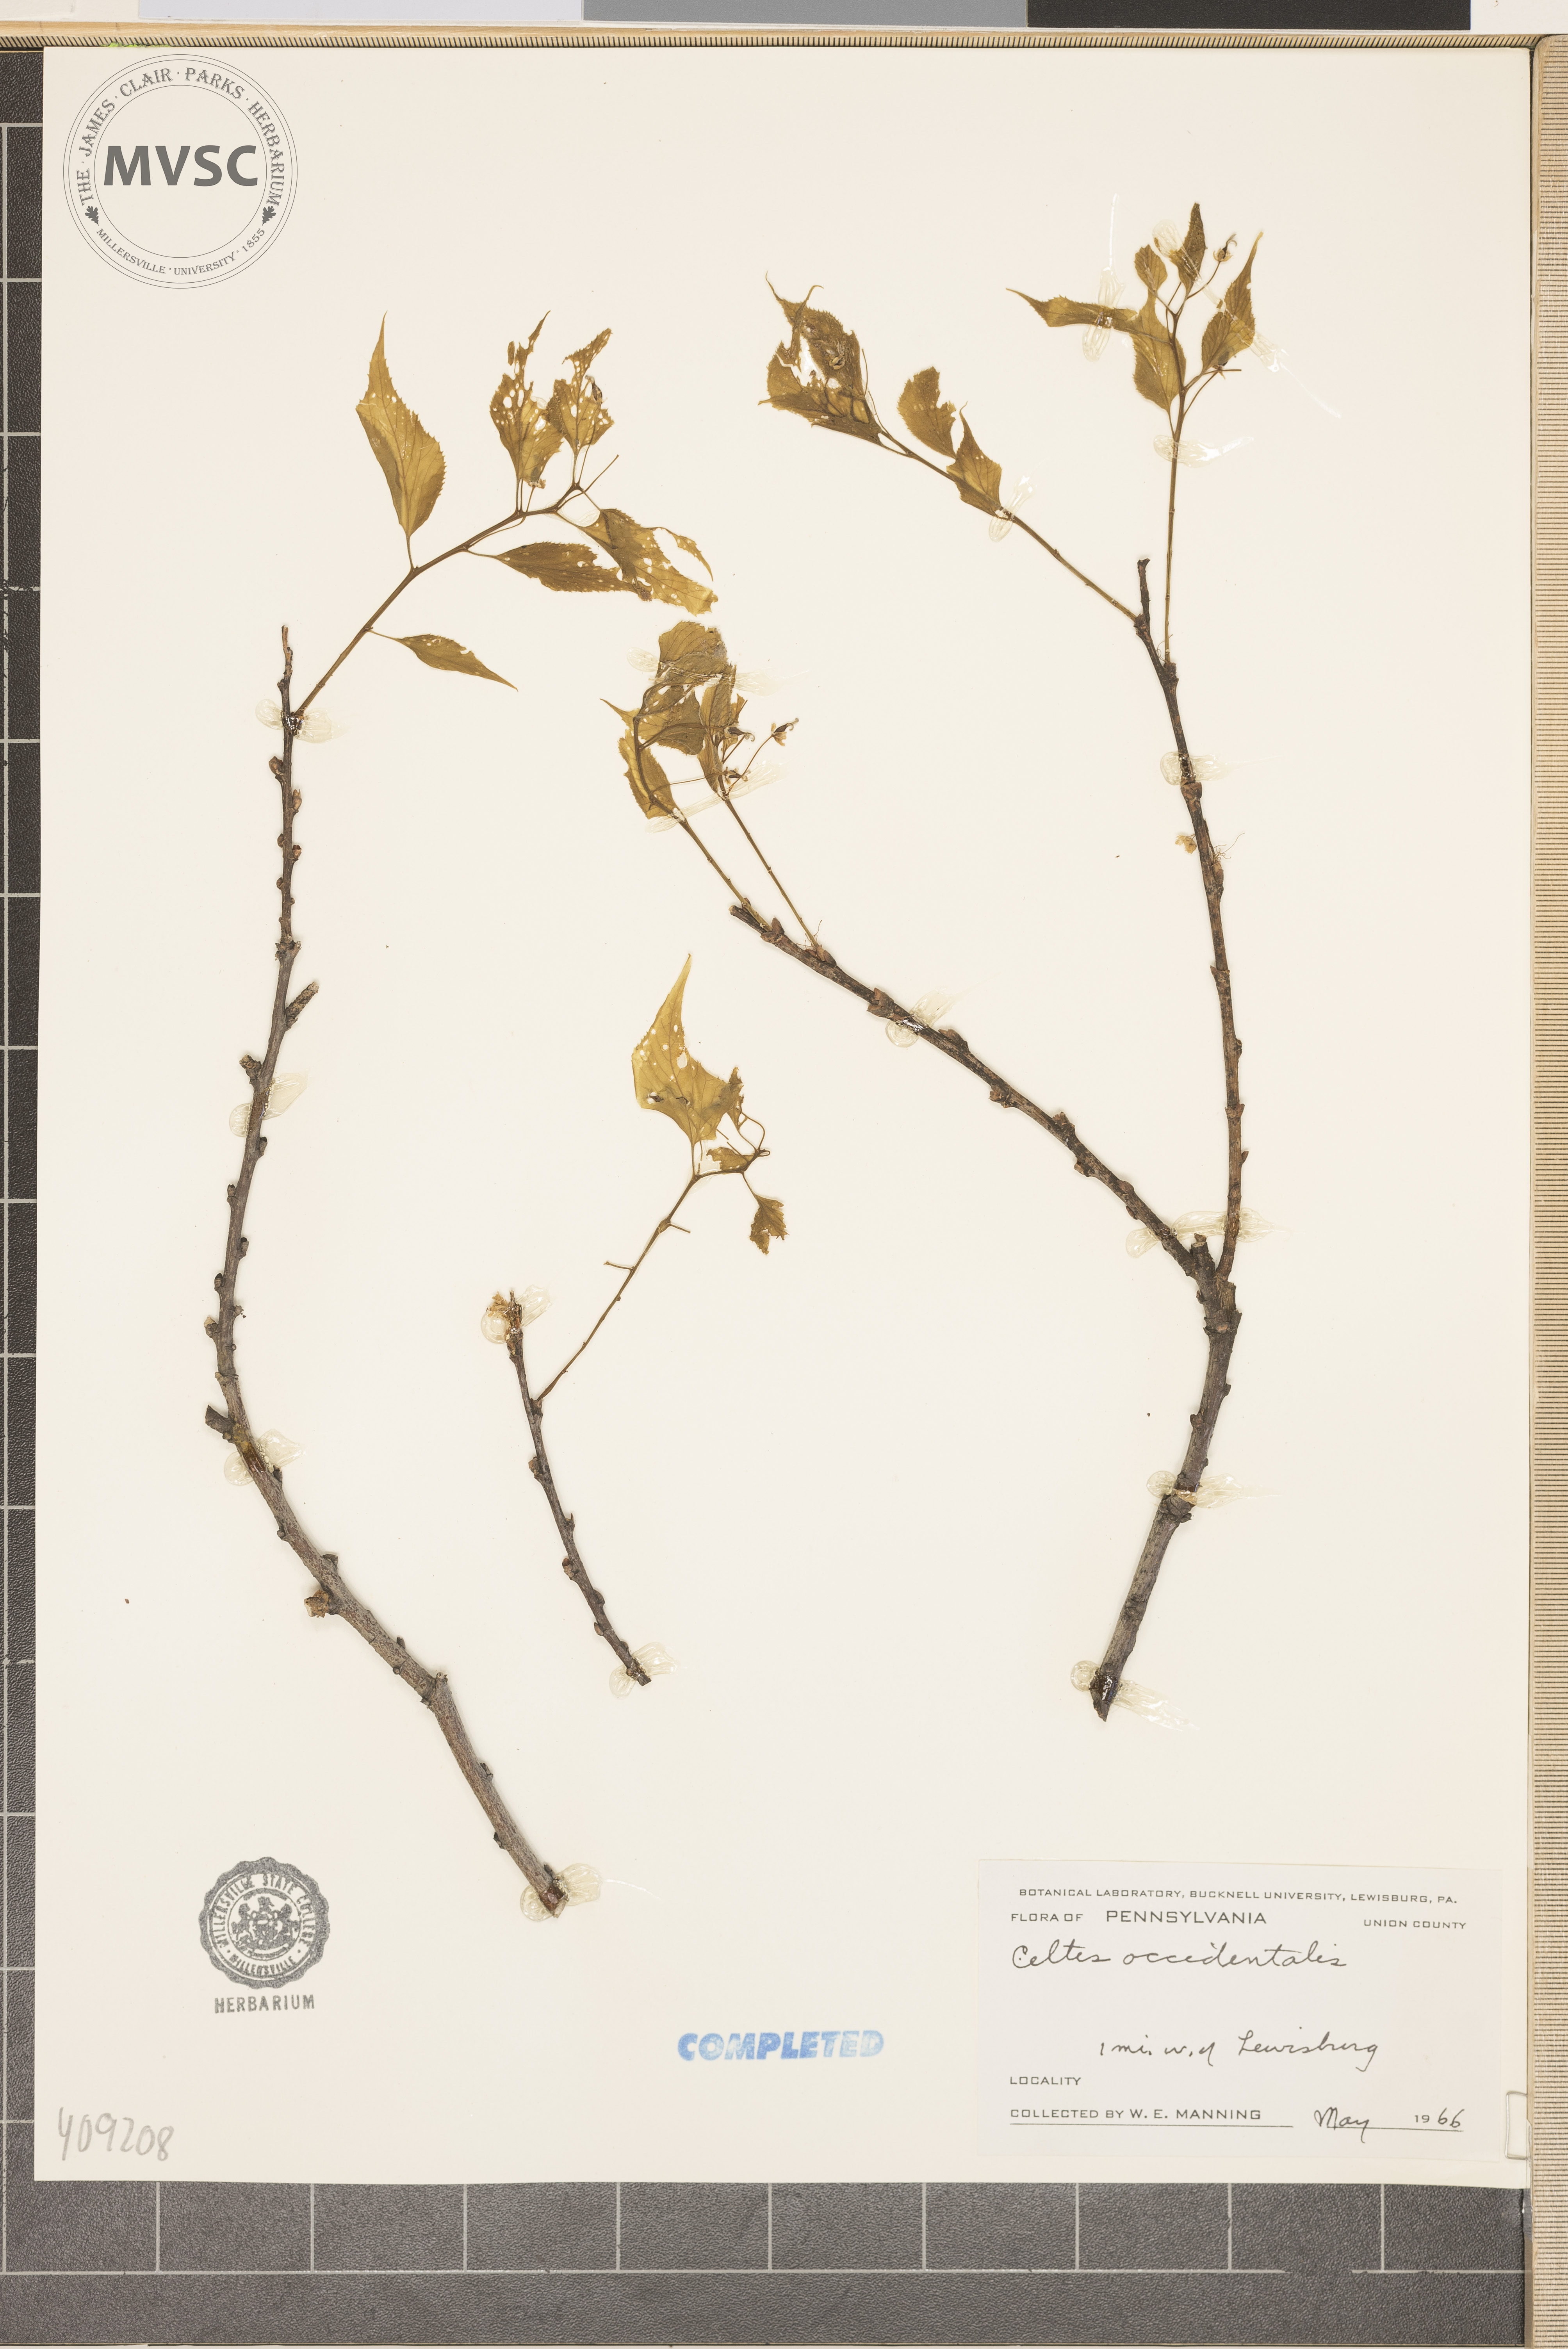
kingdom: Plantae
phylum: Tracheophyta
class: Magnoliopsida
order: Rosales
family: Cannabaceae
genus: Celtis
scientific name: Celtis occidentalis
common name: hackberry
